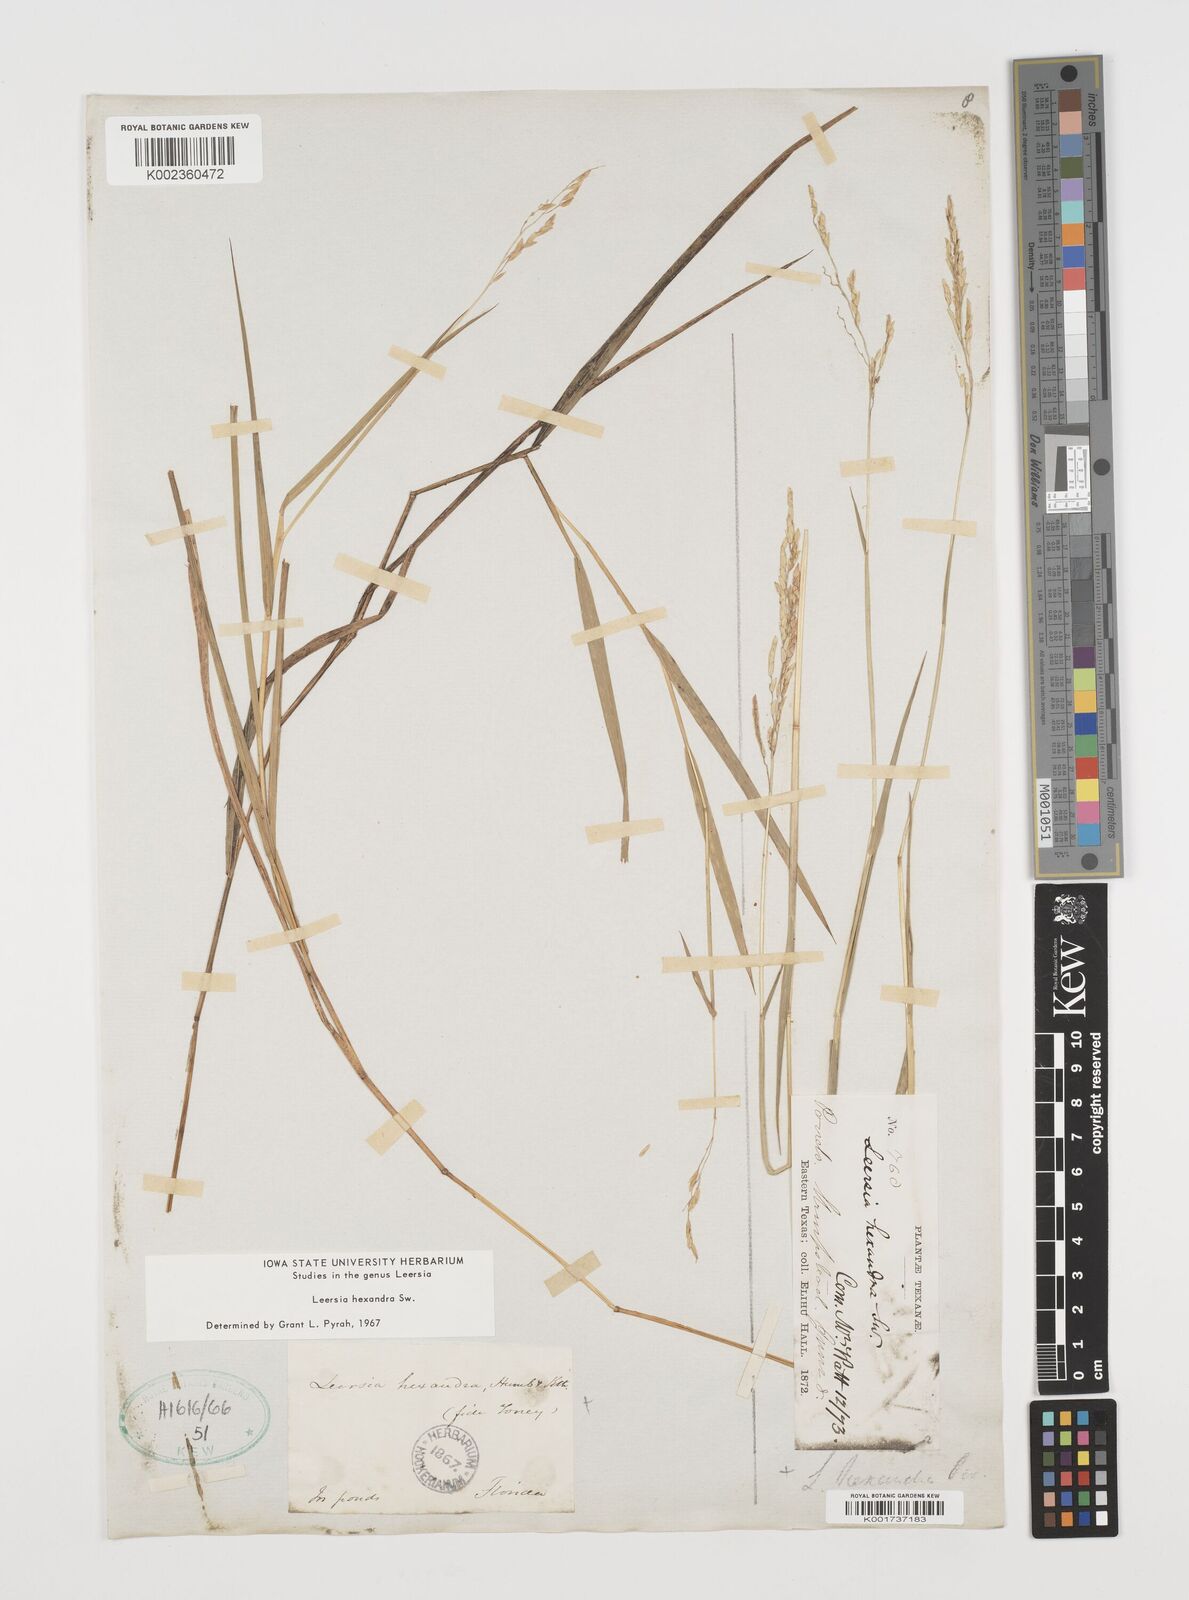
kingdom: Plantae
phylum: Tracheophyta
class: Liliopsida
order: Poales
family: Poaceae
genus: Leersia
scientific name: Leersia hexandra
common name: Southern cut grass
